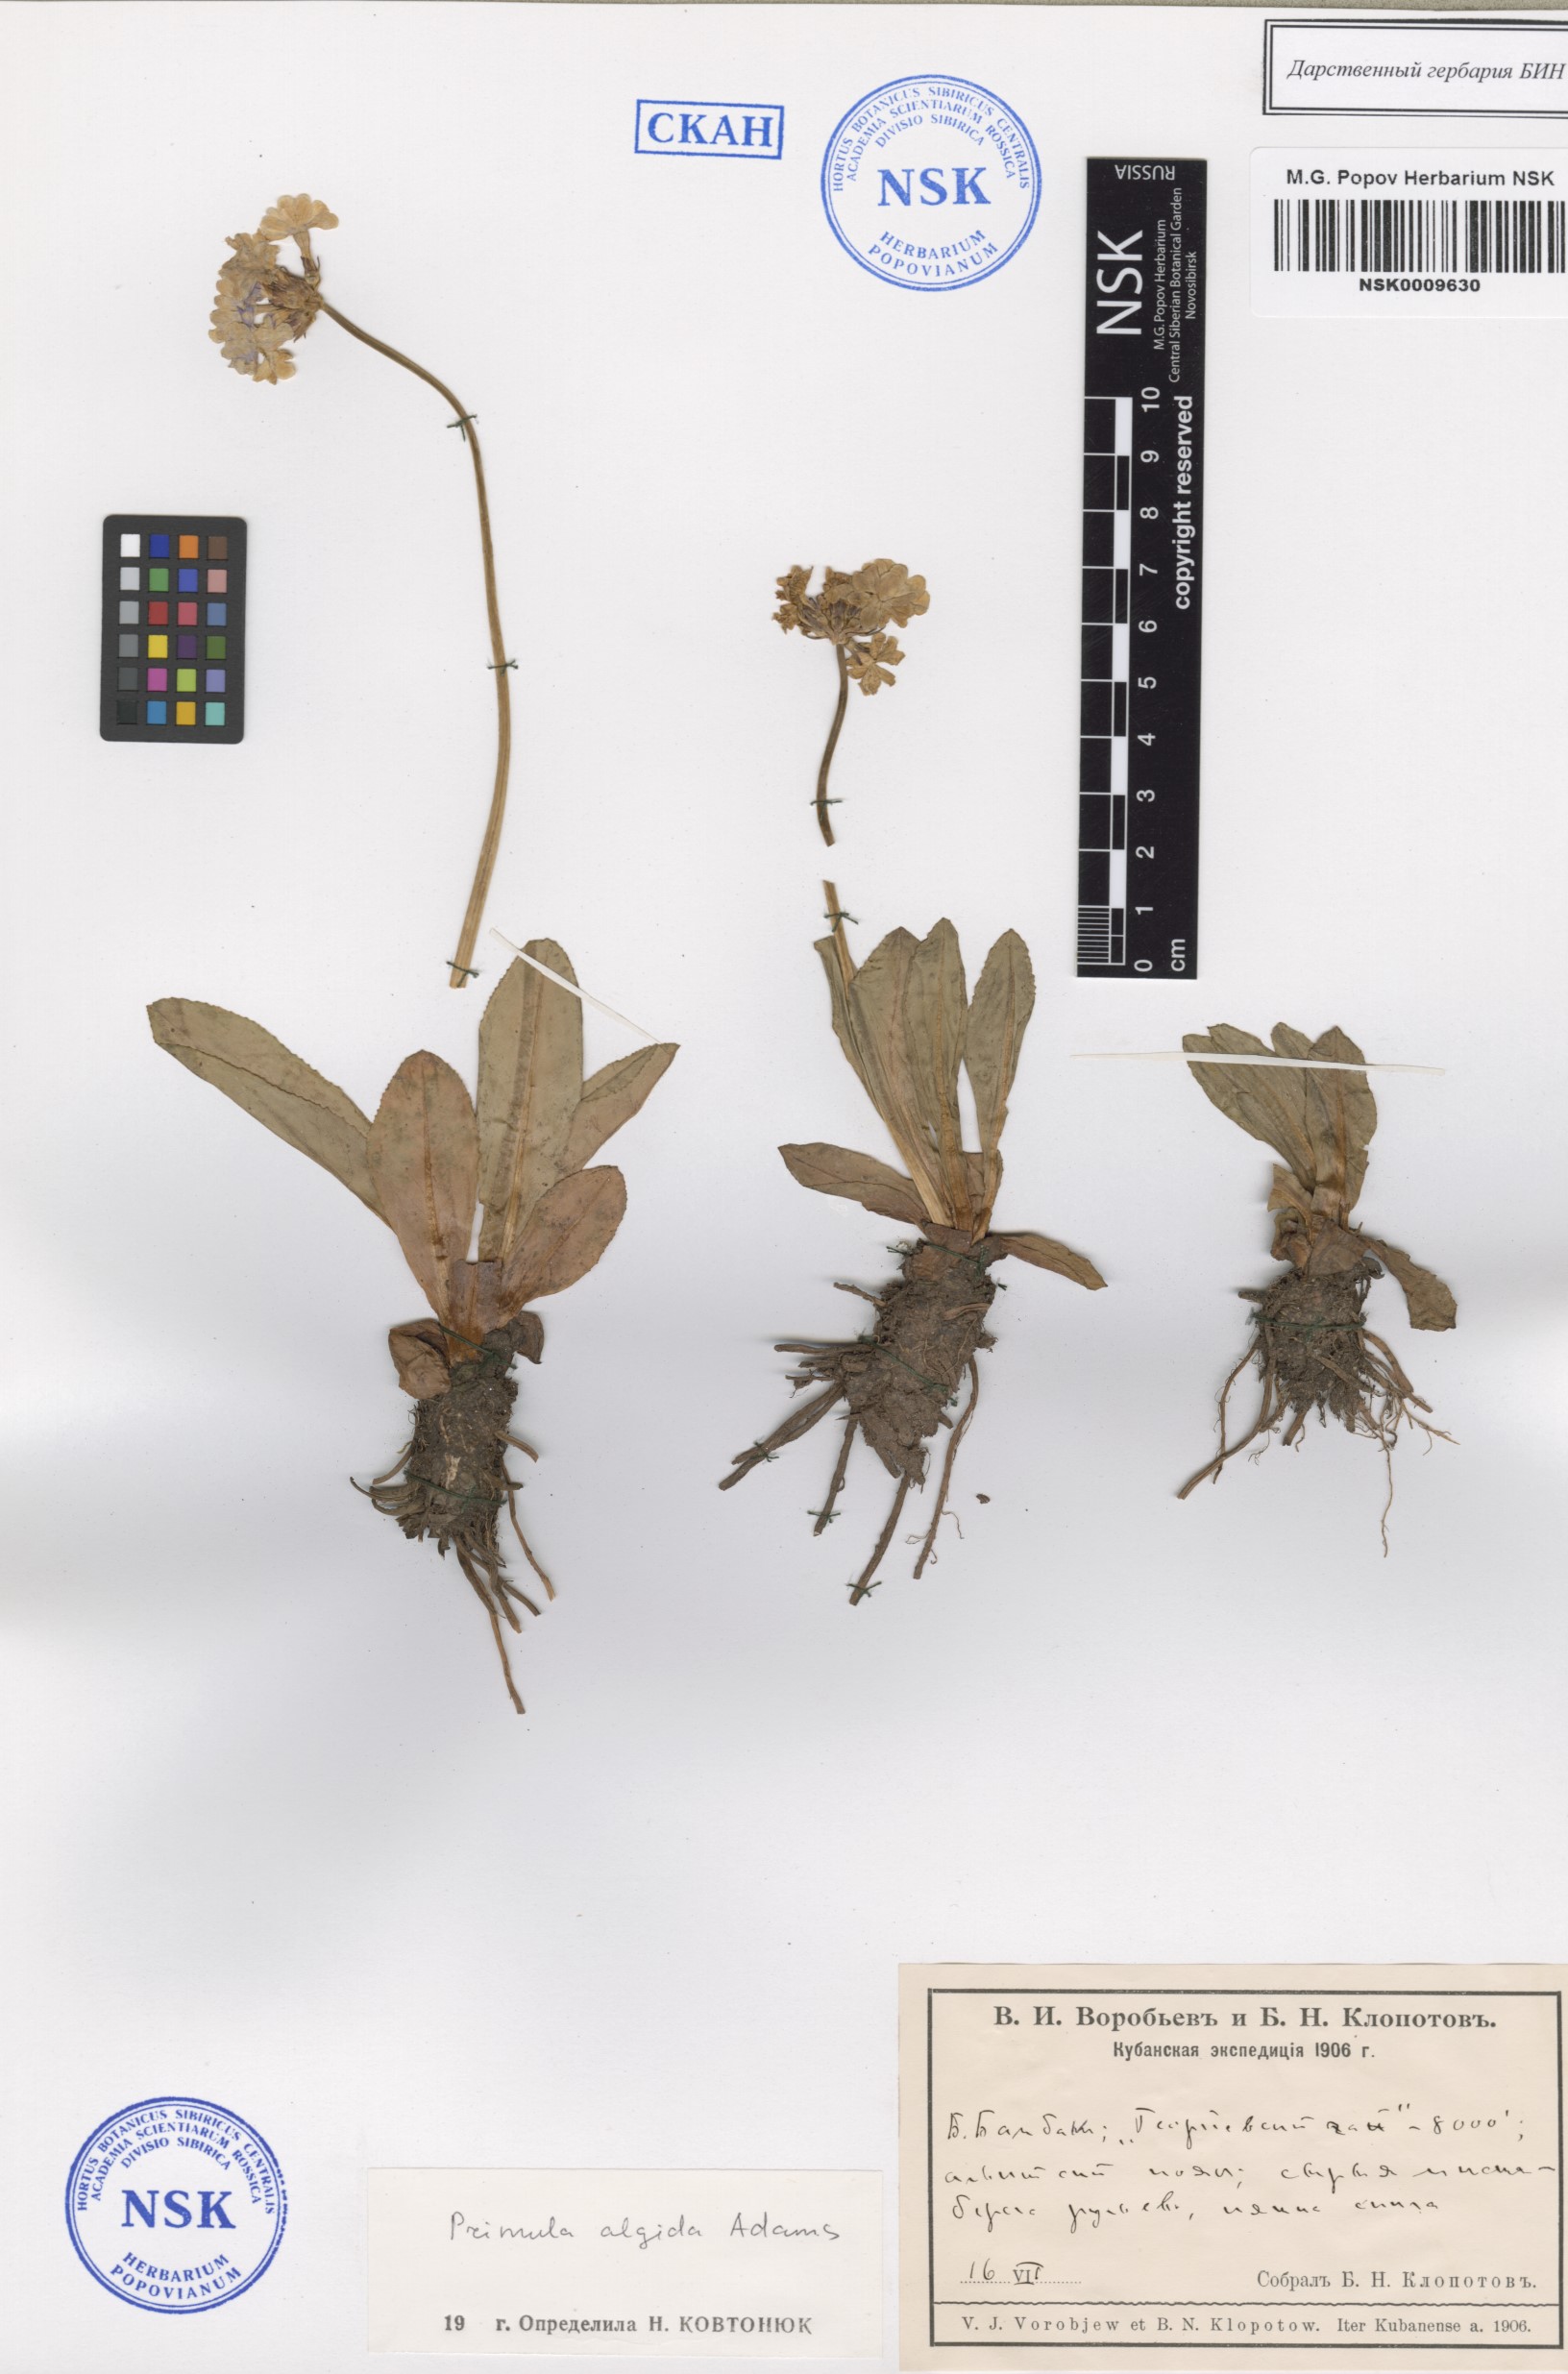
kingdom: Plantae
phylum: Tracheophyta
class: Magnoliopsida
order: Ericales
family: Primulaceae
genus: Primula
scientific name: Primula algida
